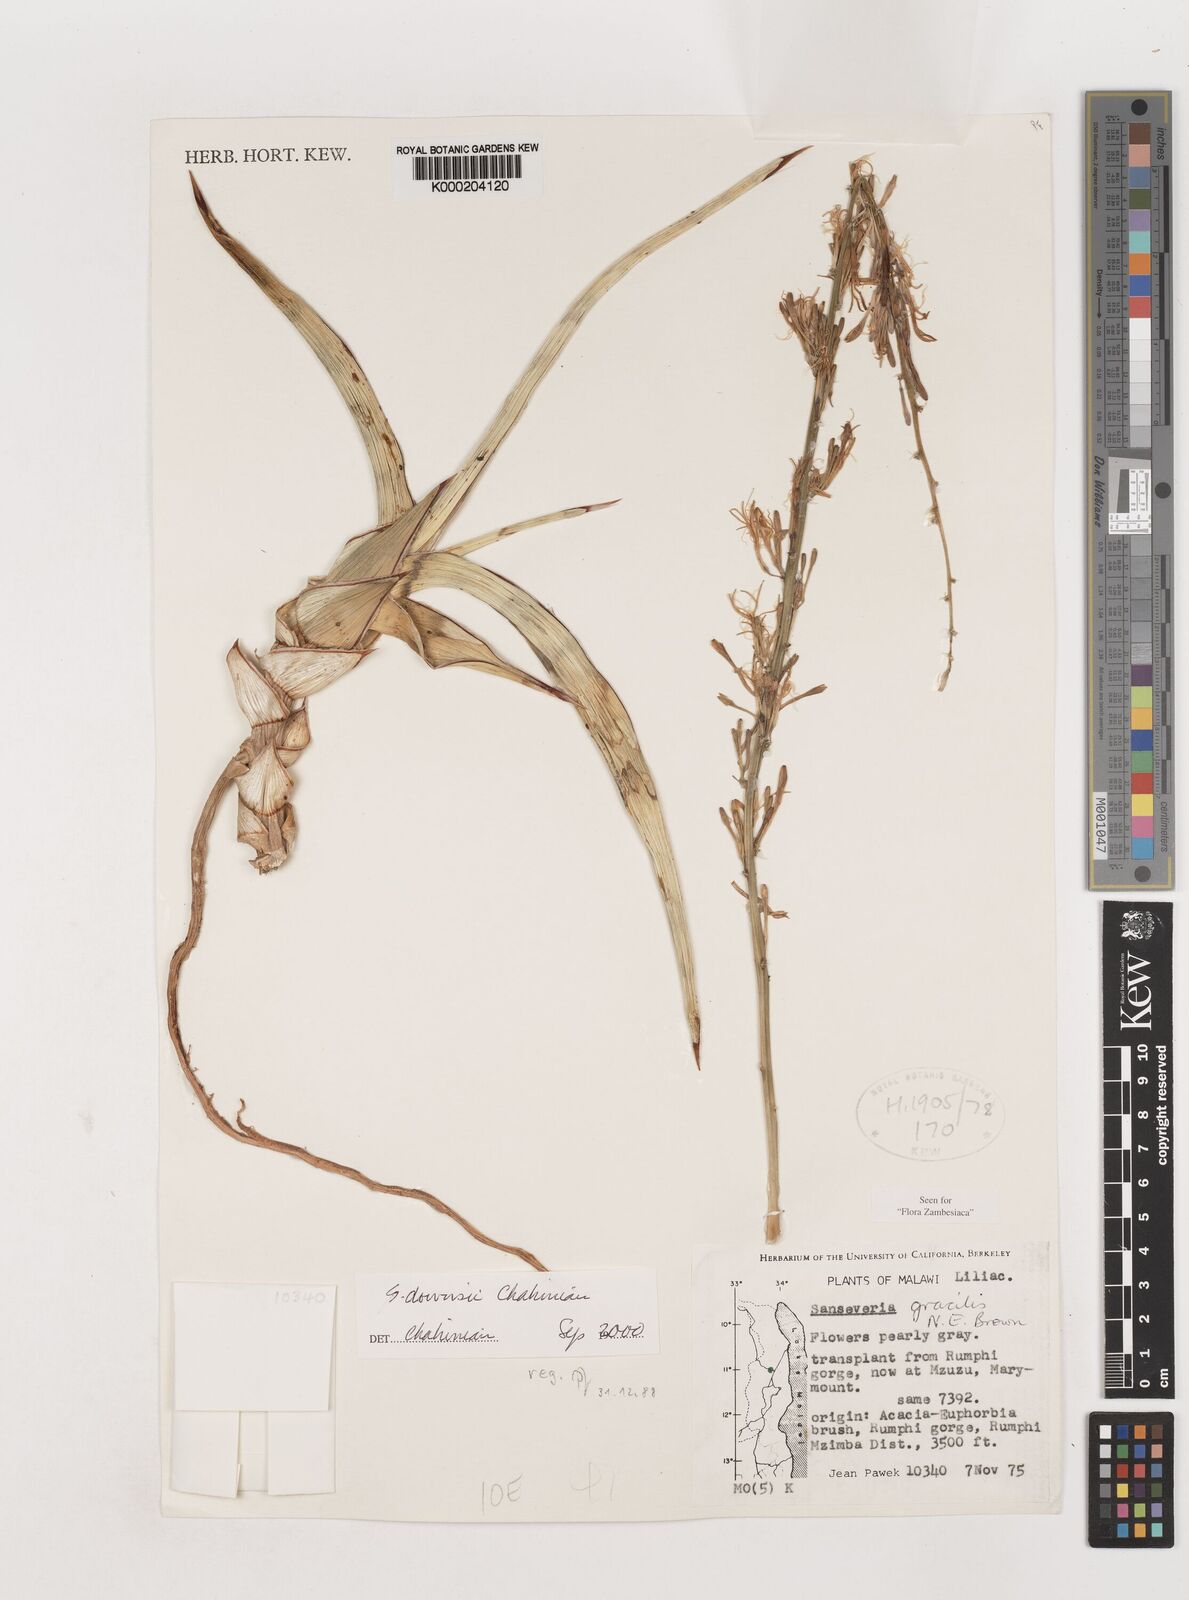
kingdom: Plantae
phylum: Tracheophyta
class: Liliopsida
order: Asparagales
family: Asparagaceae
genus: Dracaena
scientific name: Dracaena downsii
